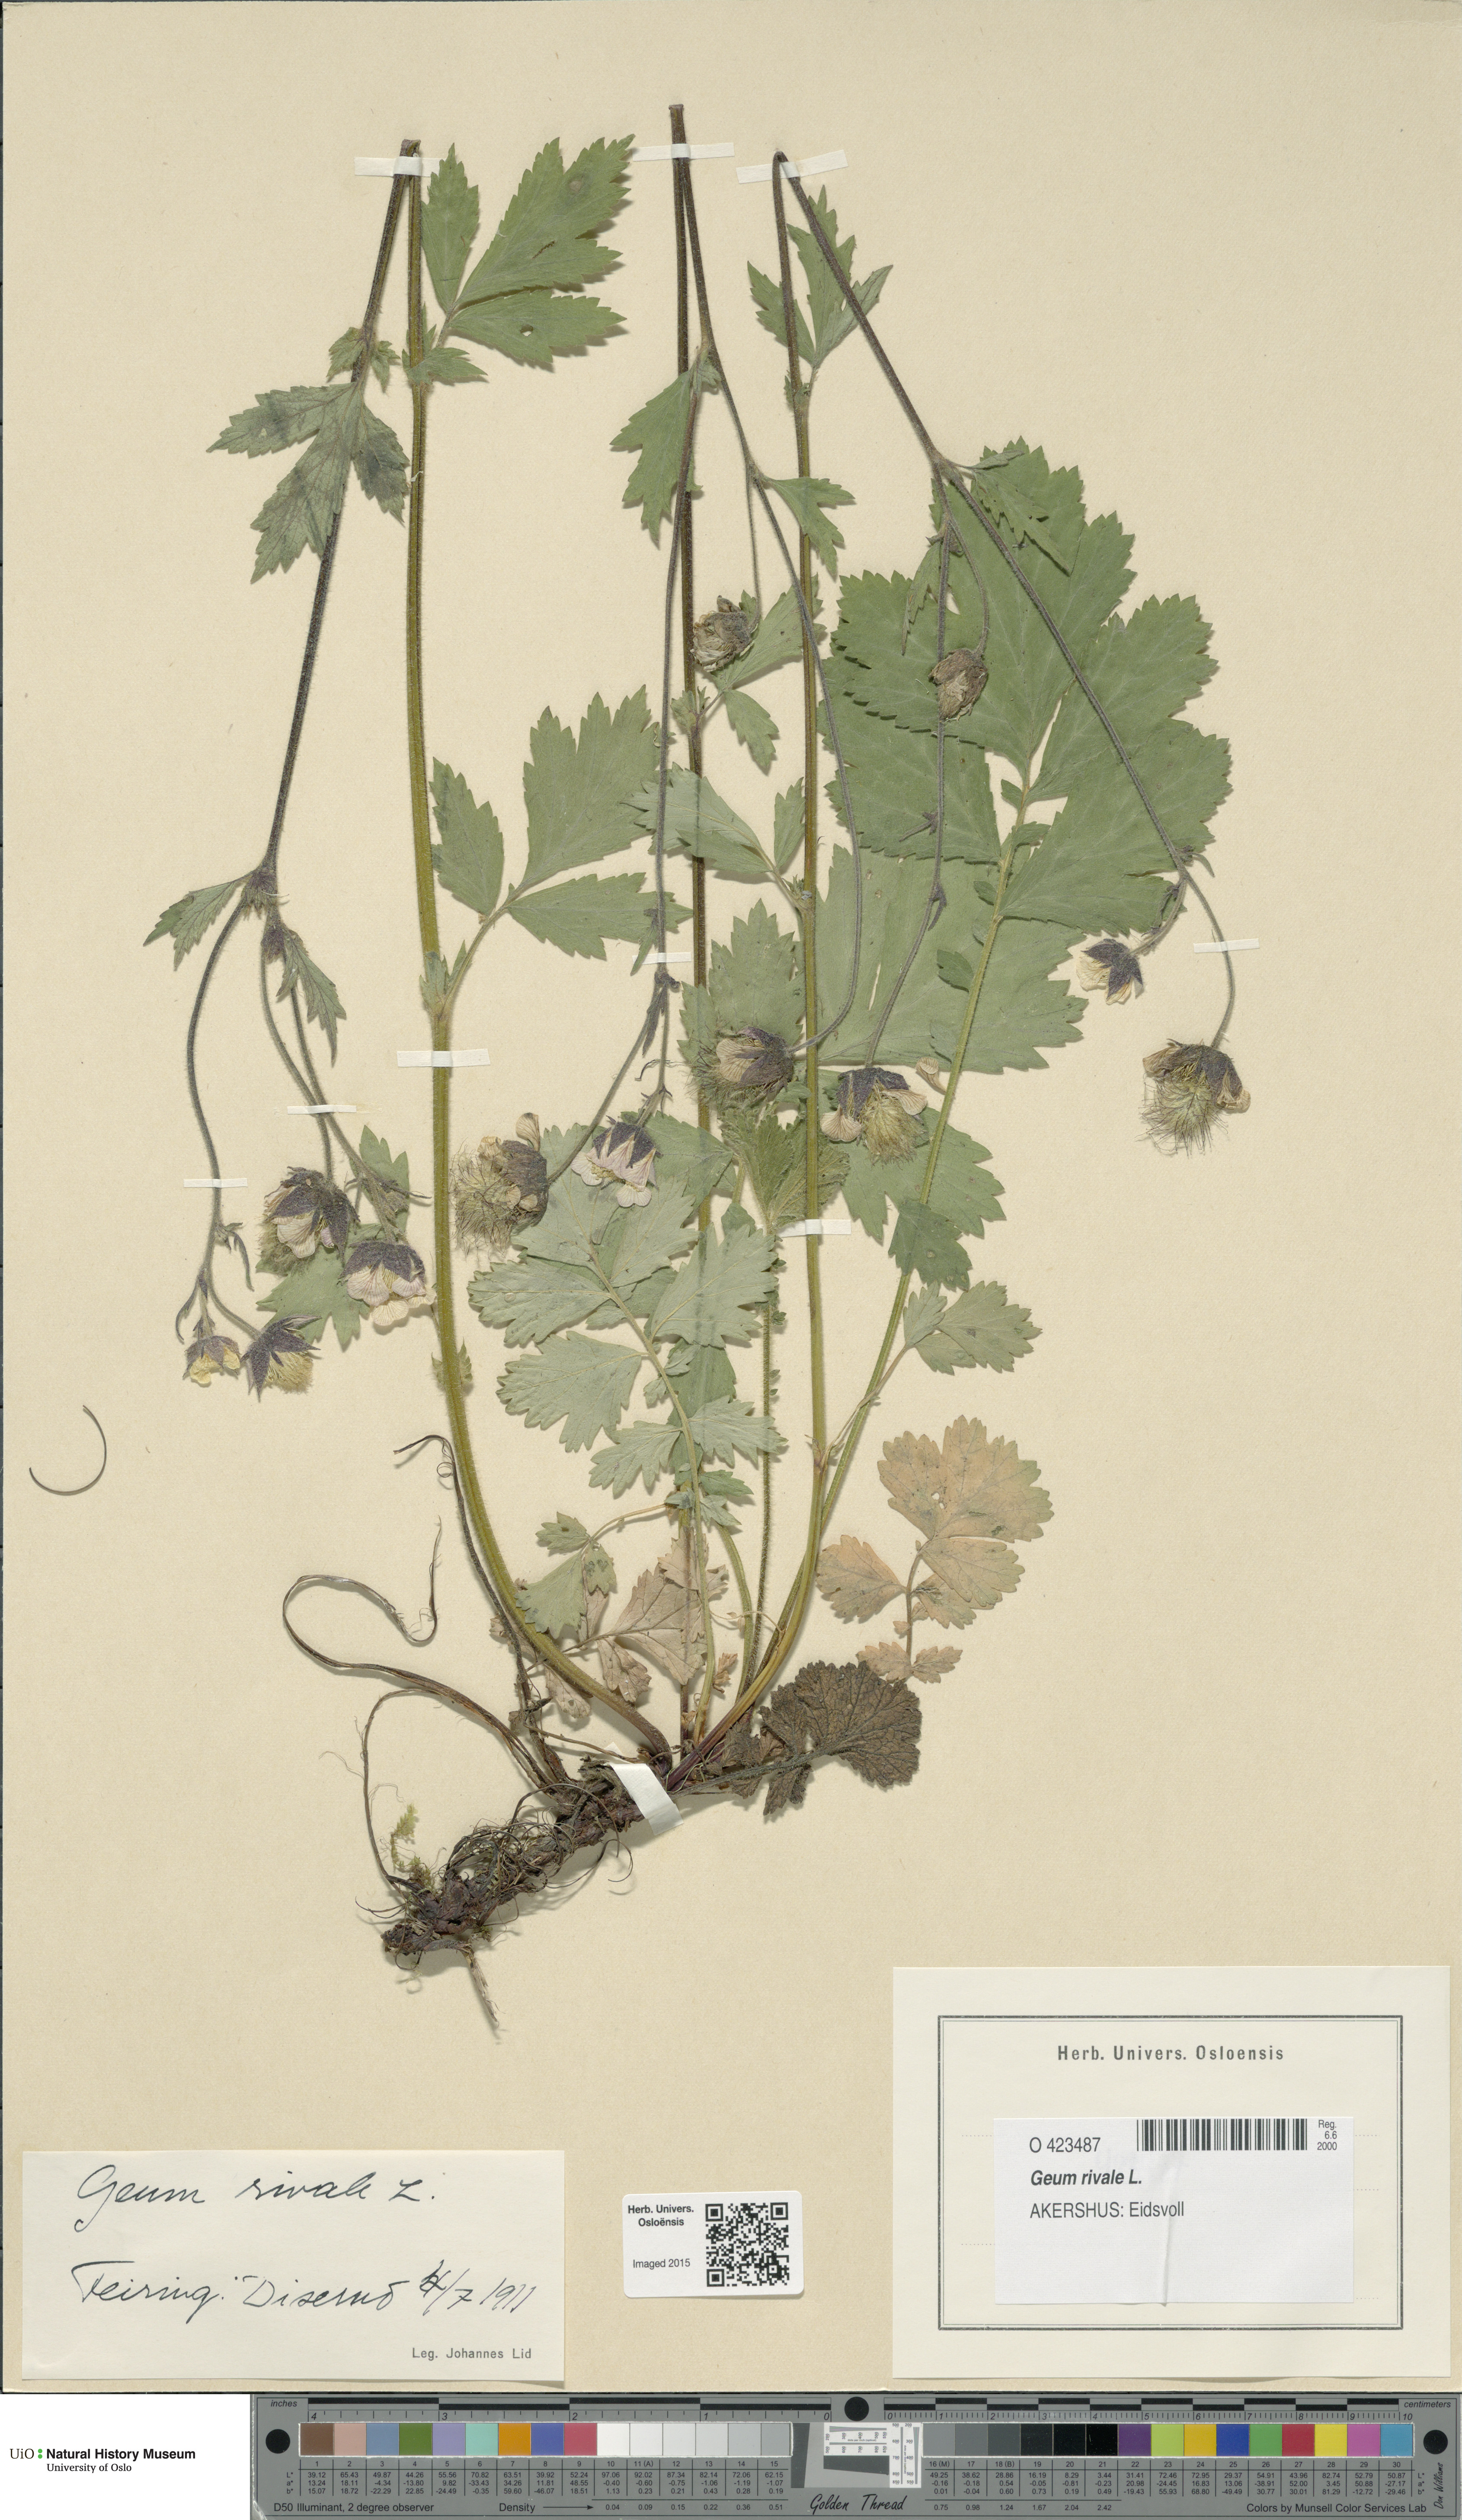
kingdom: Plantae
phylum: Tracheophyta
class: Magnoliopsida
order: Rosales
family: Rosaceae
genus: Geum
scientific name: Geum rivale
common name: Water avens
